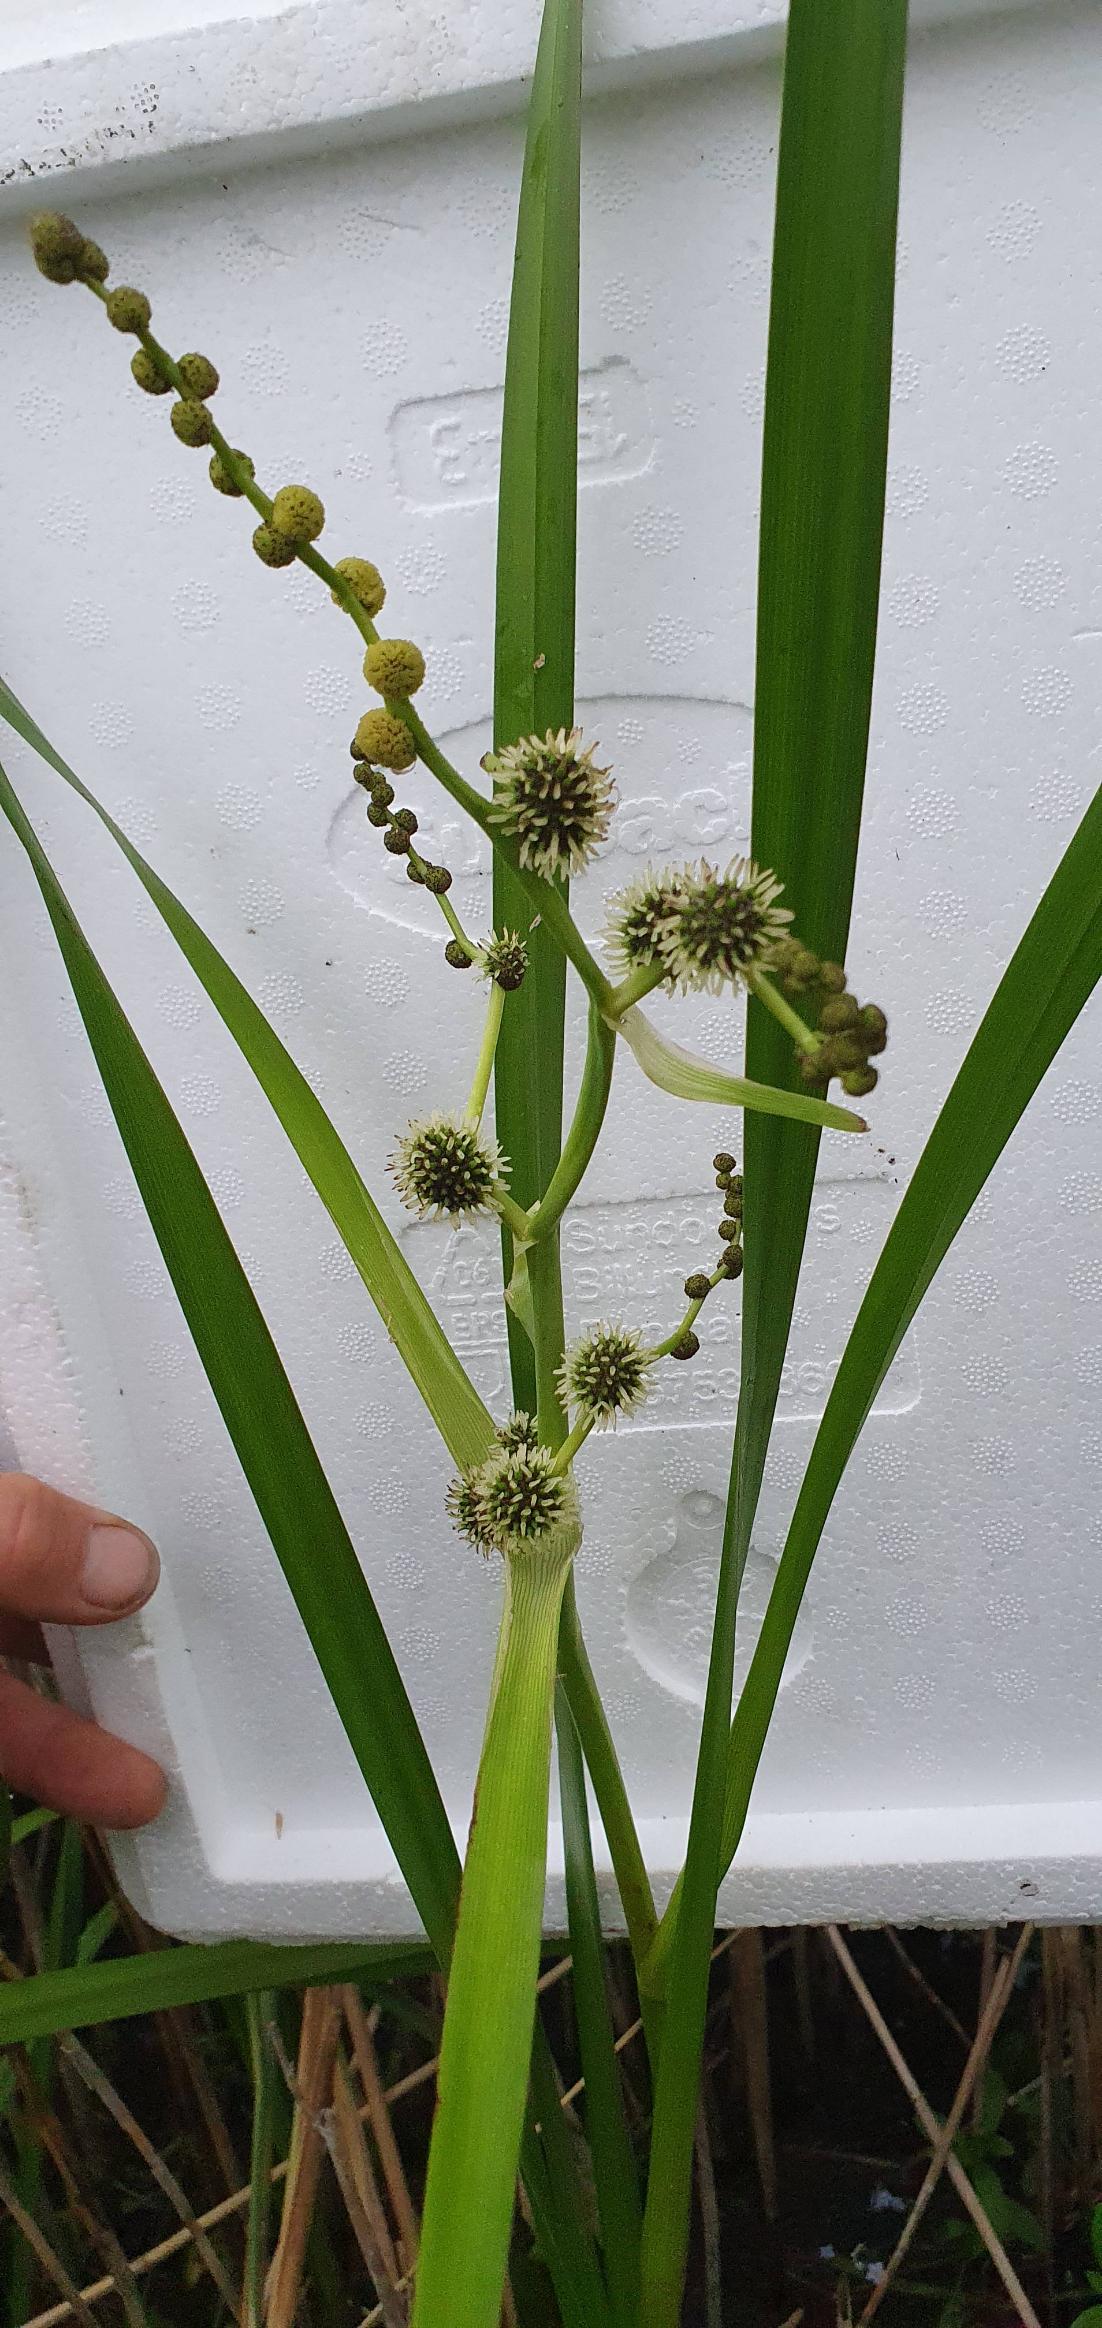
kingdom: Plantae
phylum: Tracheophyta
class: Liliopsida
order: Poales
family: Typhaceae
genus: Sparganium
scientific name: Sparganium erectum
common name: Grenet pindsvineknop
